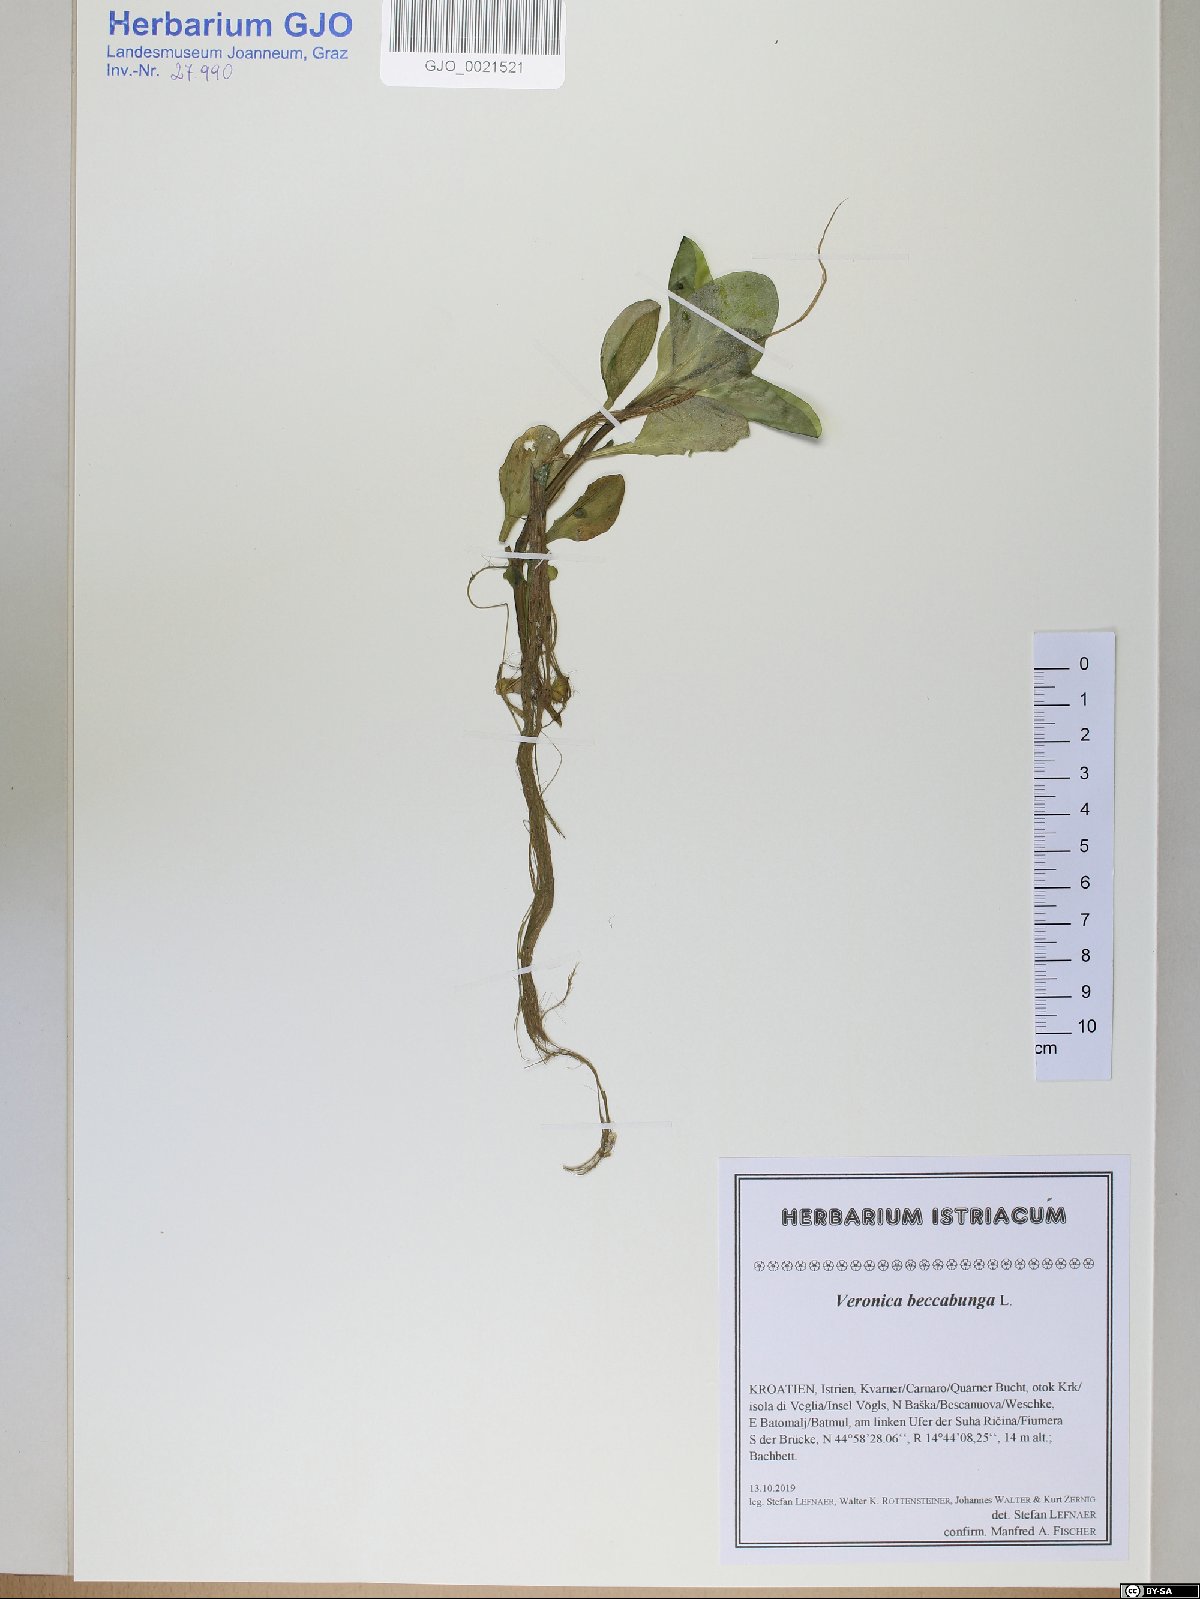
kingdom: Plantae
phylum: Tracheophyta
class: Magnoliopsida
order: Lamiales
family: Plantaginaceae
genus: Veronica
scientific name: Veronica beccabunga
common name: Brooklime
